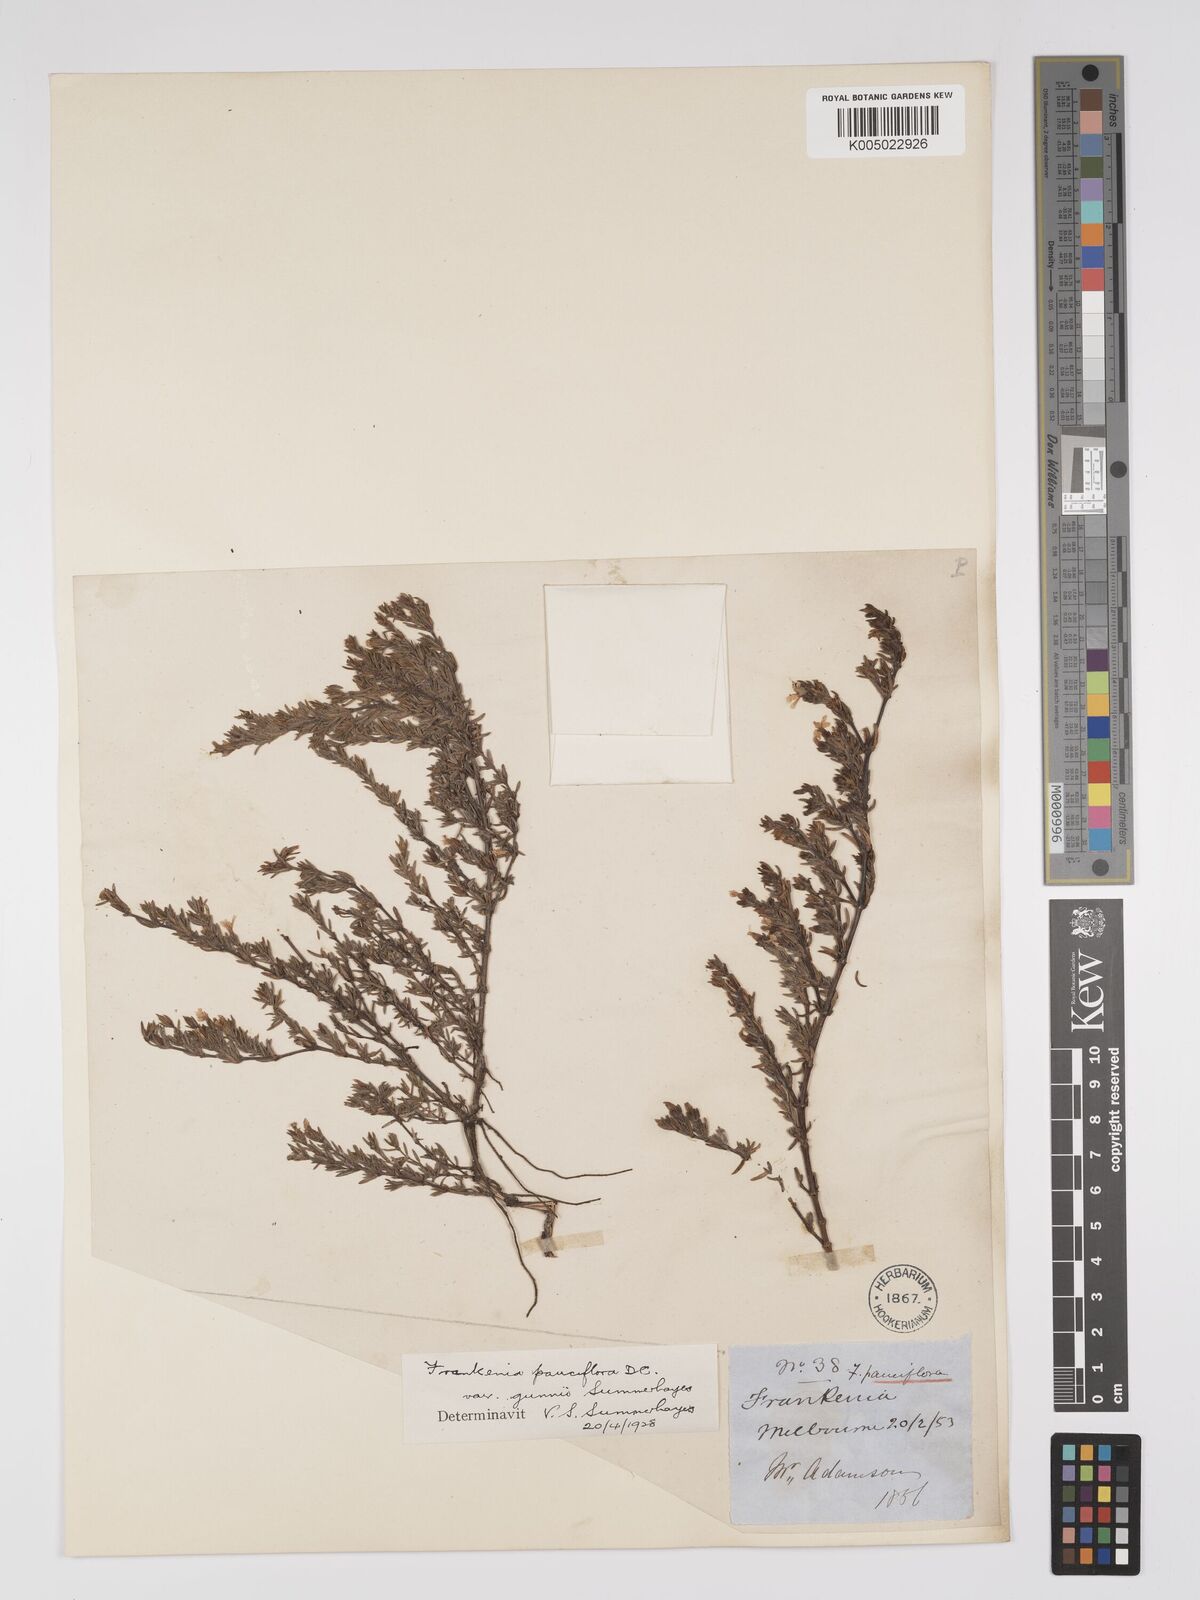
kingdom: Plantae
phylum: Tracheophyta
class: Magnoliopsida
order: Caryophyllales
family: Frankeniaceae
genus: Frankenia
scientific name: Frankenia pauciflora
